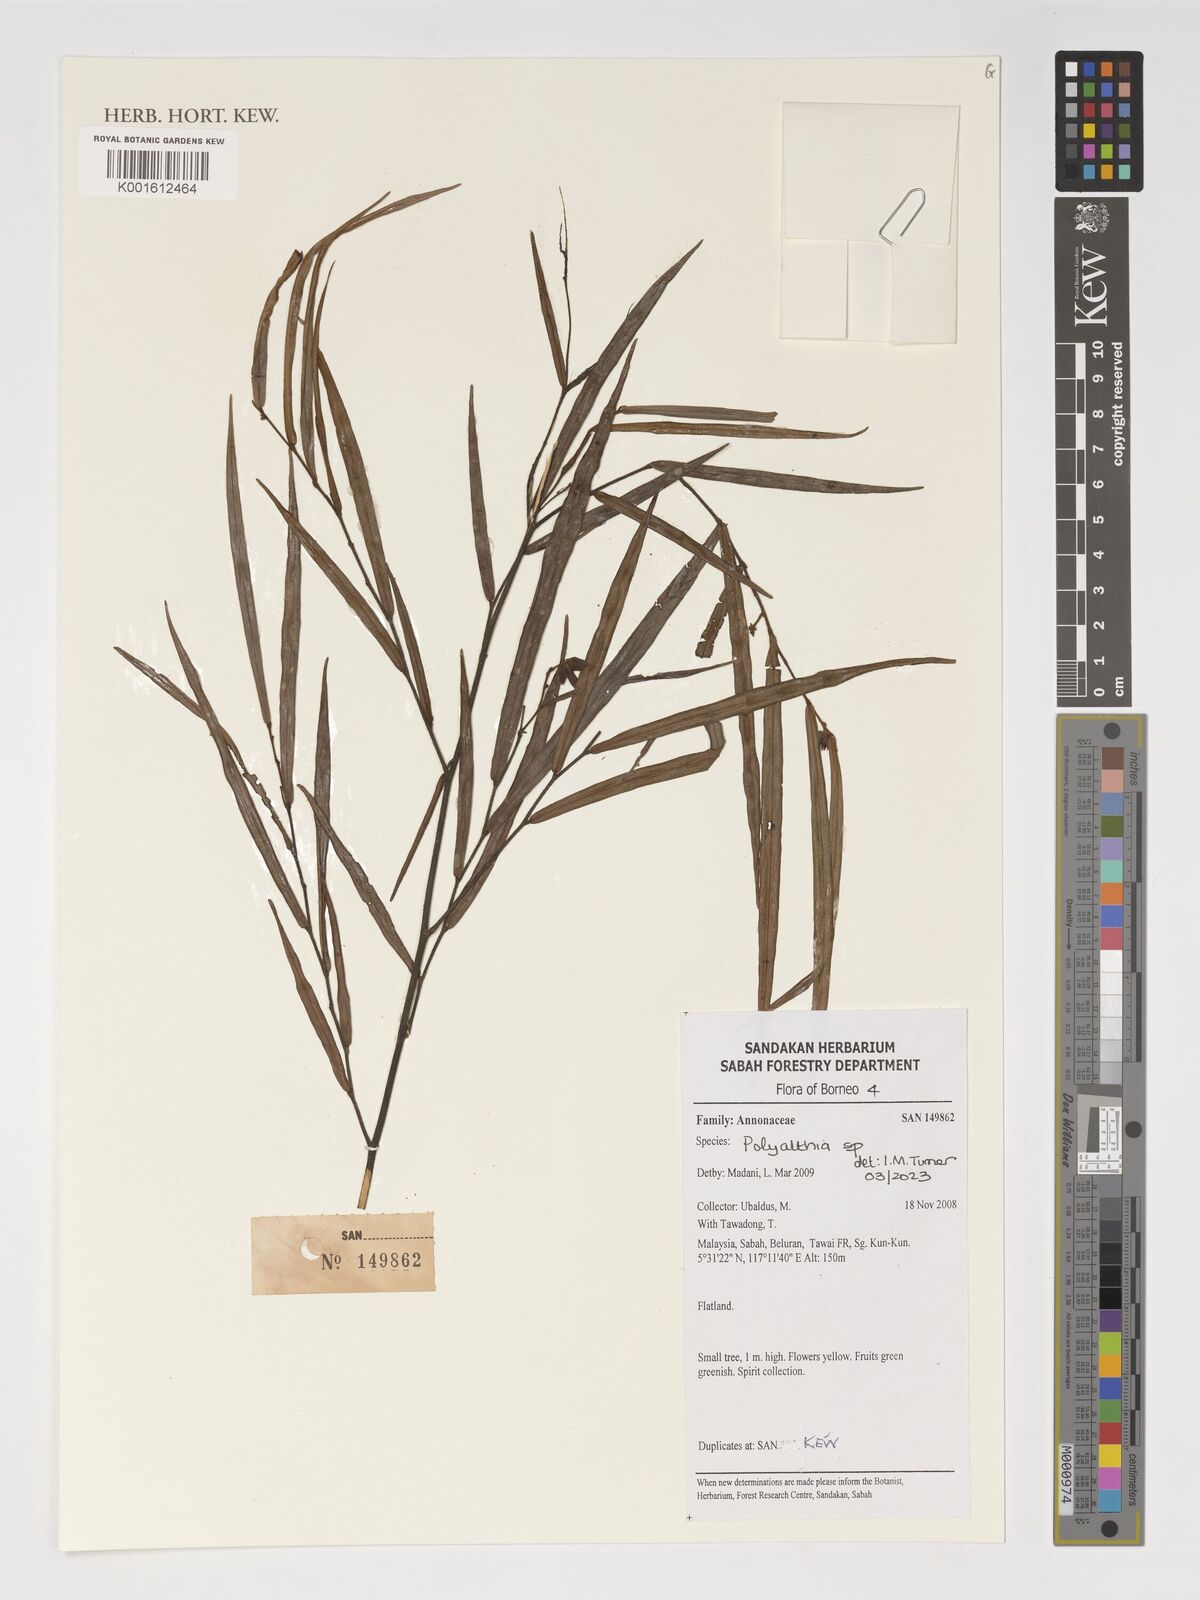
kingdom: Plantae
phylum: Tracheophyta
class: Magnoliopsida
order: Magnoliales
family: Annonaceae
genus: Polyalthia
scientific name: Polyalthia
